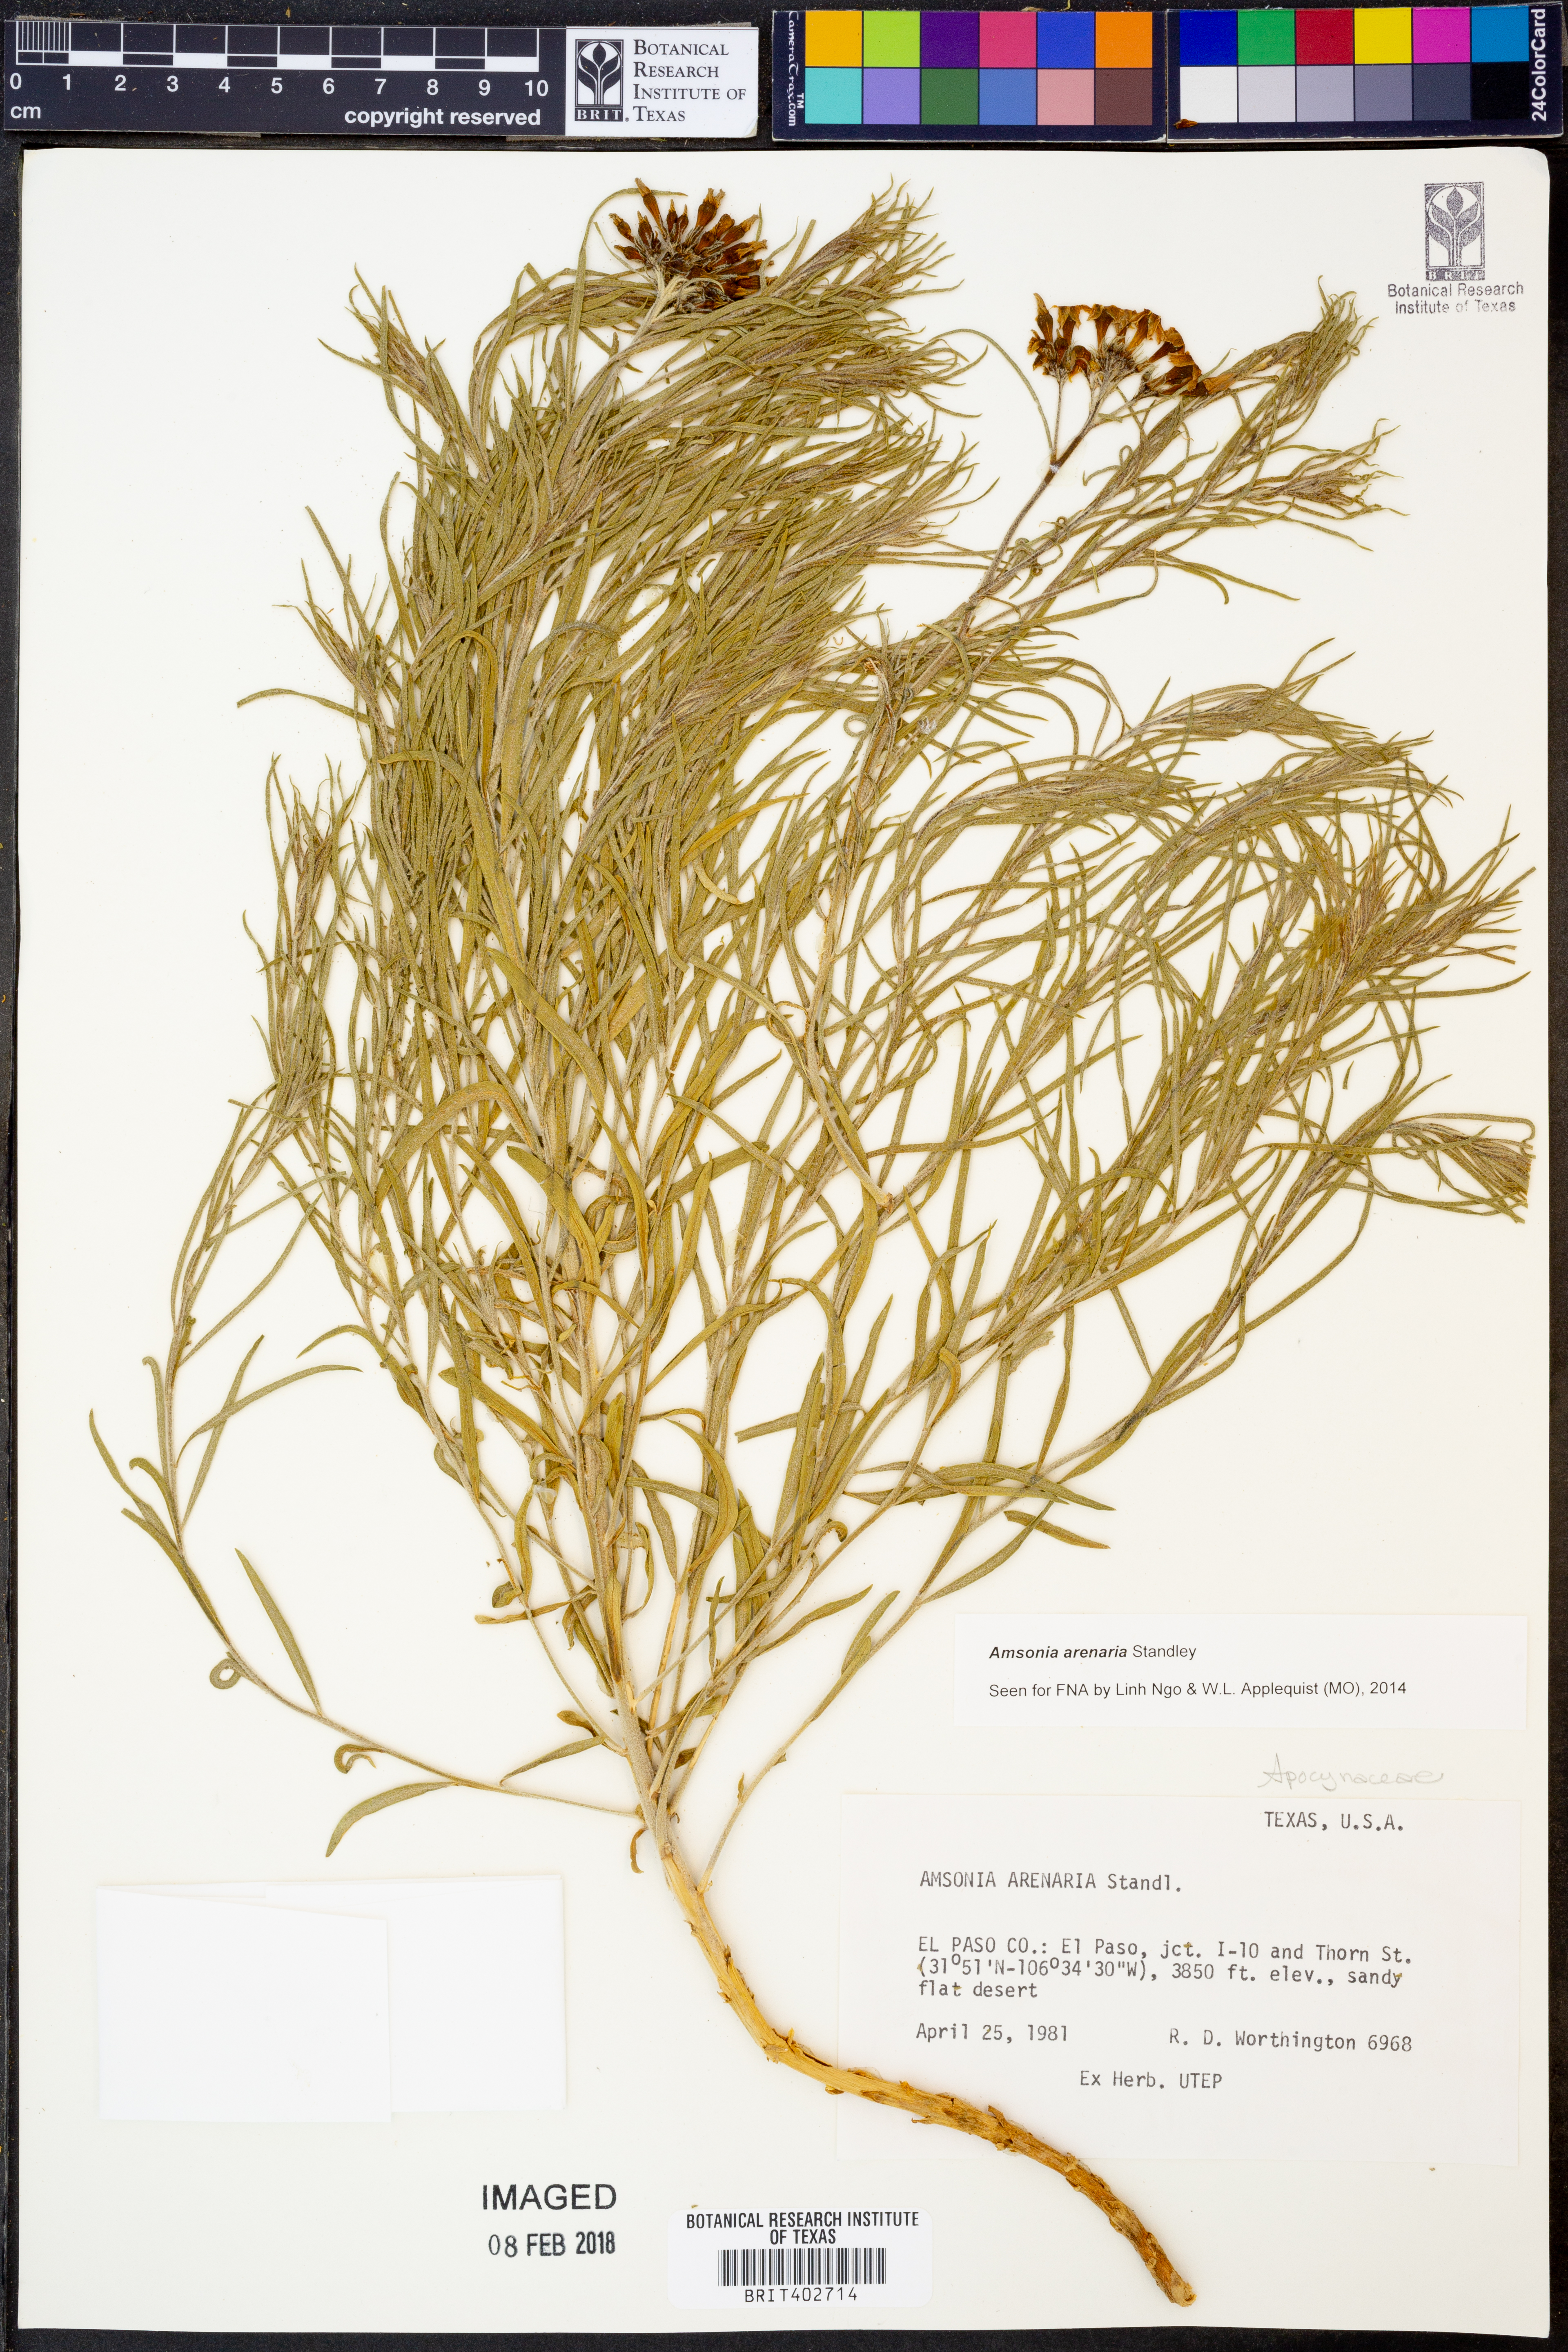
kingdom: Plantae
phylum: Tracheophyta
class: Magnoliopsida
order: Gentianales
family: Apocynaceae
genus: Amsonia
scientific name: Amsonia tomentosa
